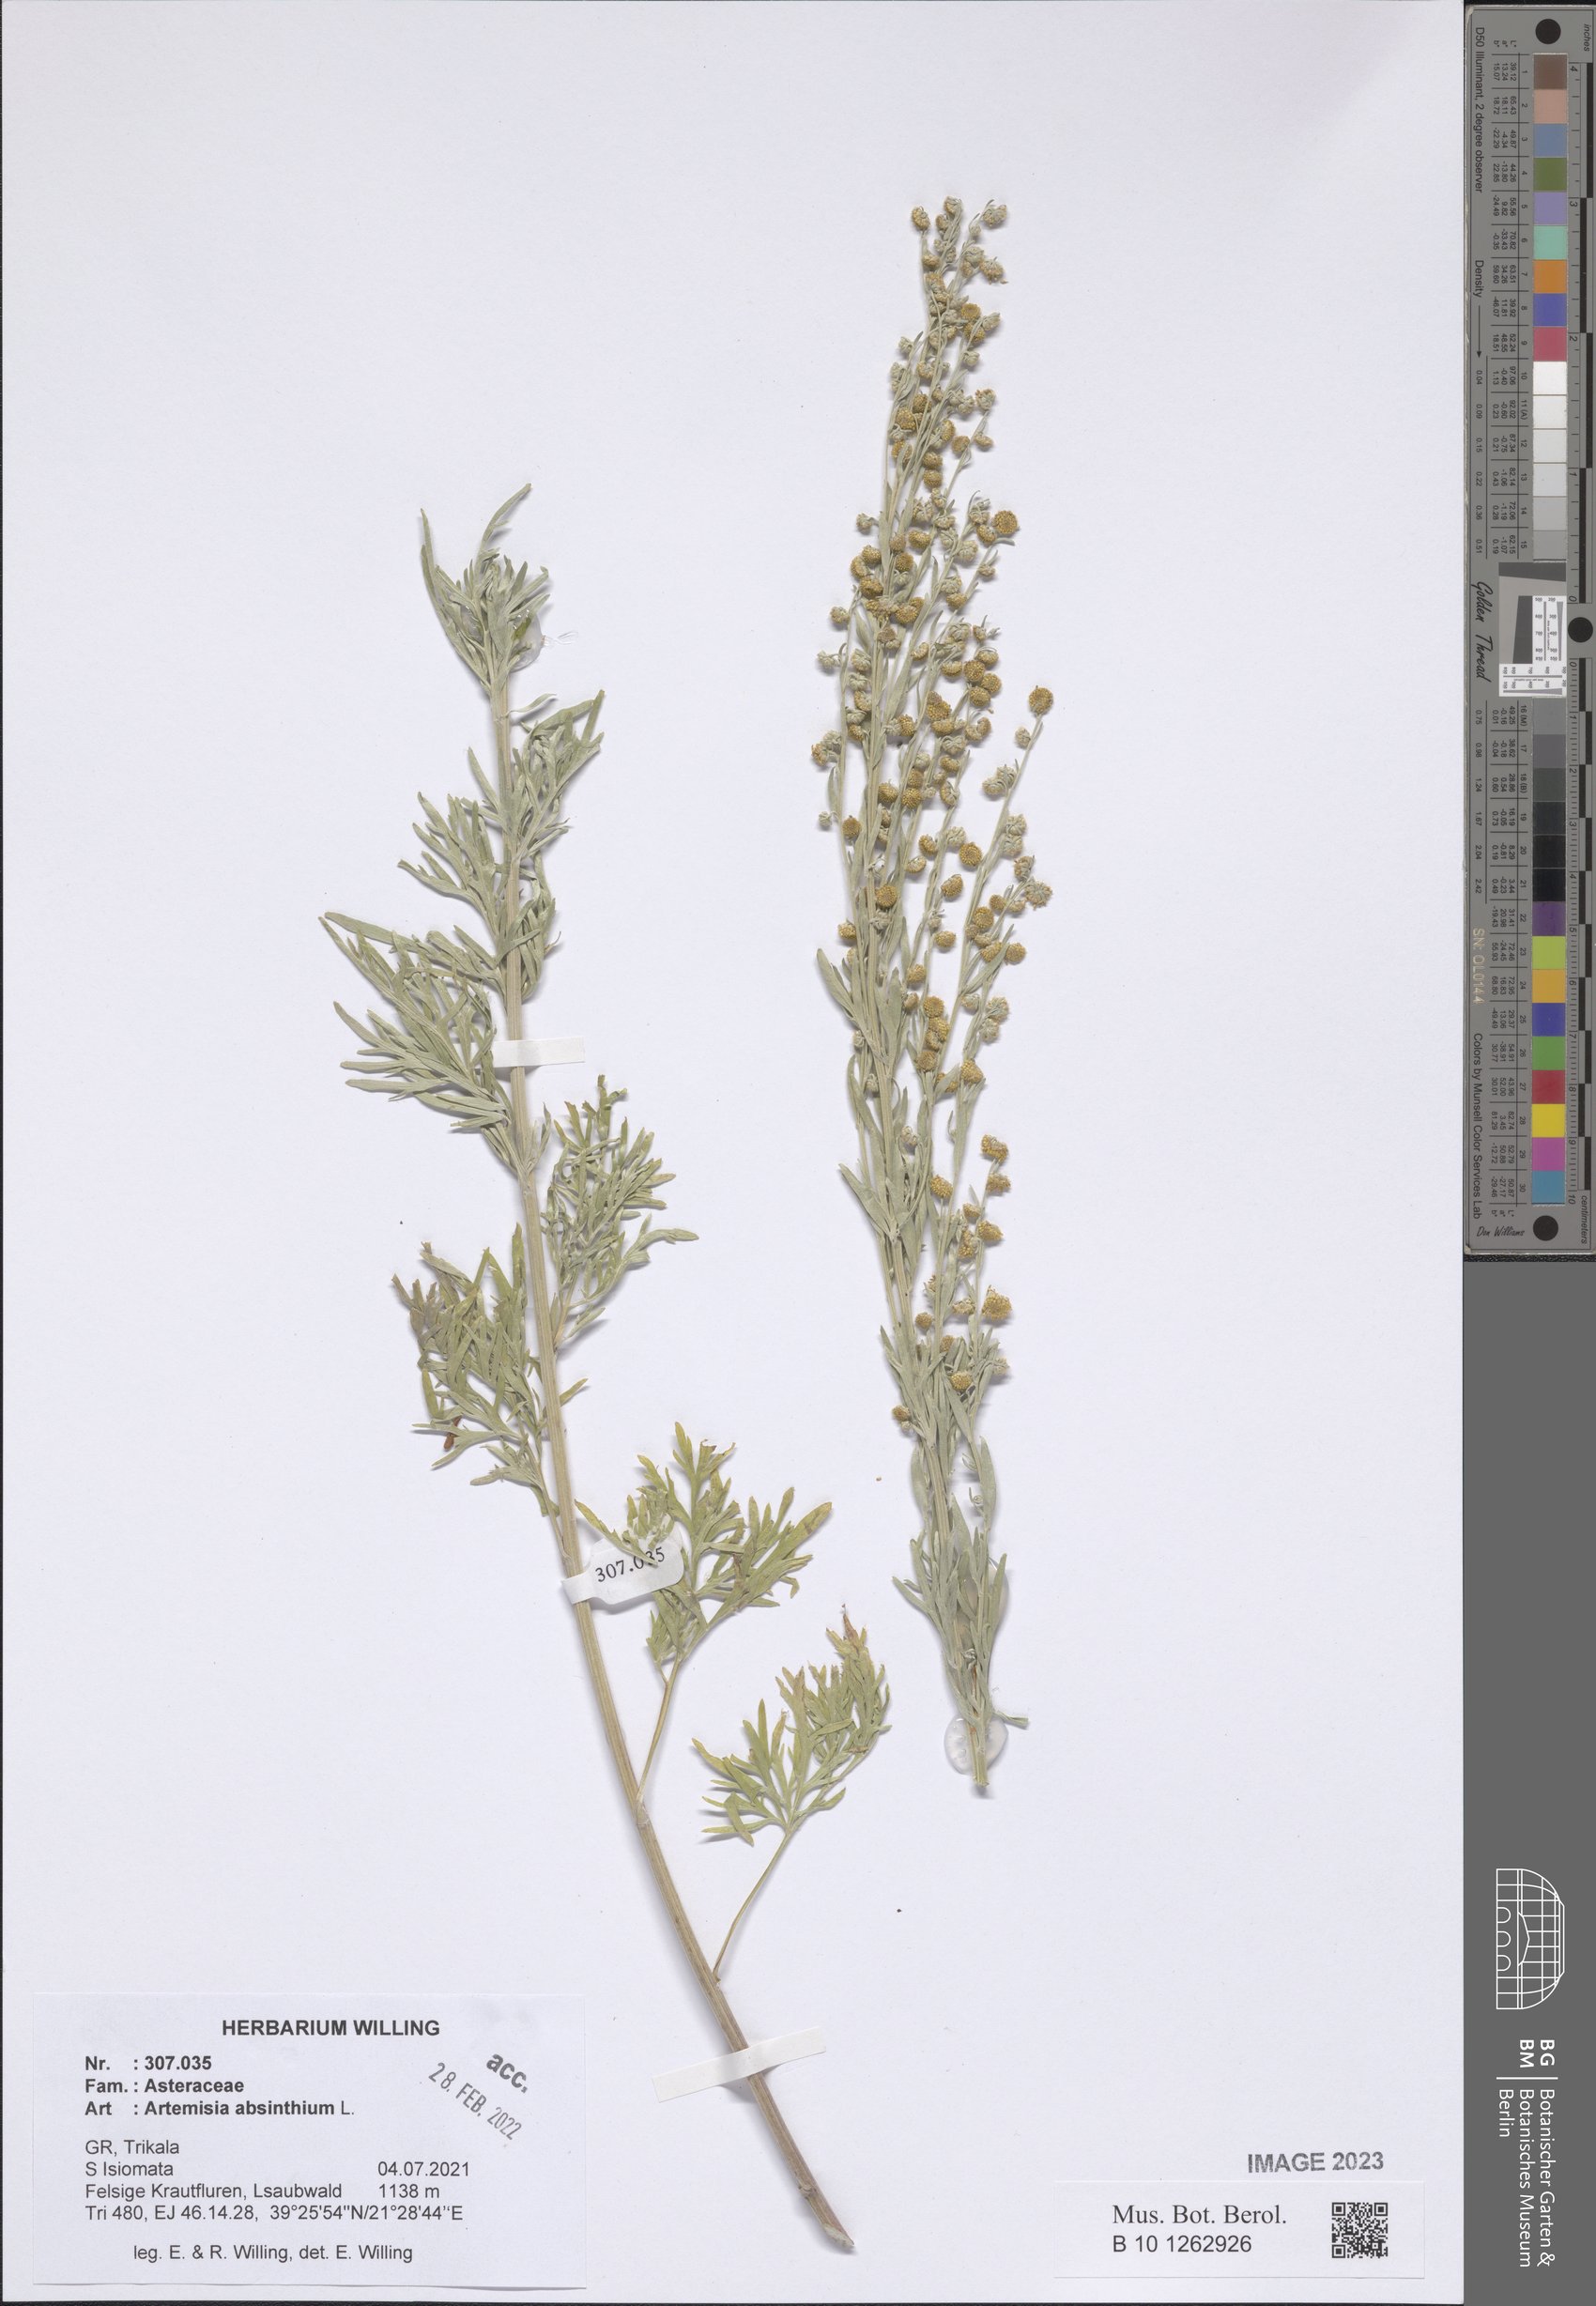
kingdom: Plantae
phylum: Tracheophyta
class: Magnoliopsida
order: Asterales
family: Asteraceae
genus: Artemisia
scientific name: Artemisia absinthium
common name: Wormwood
